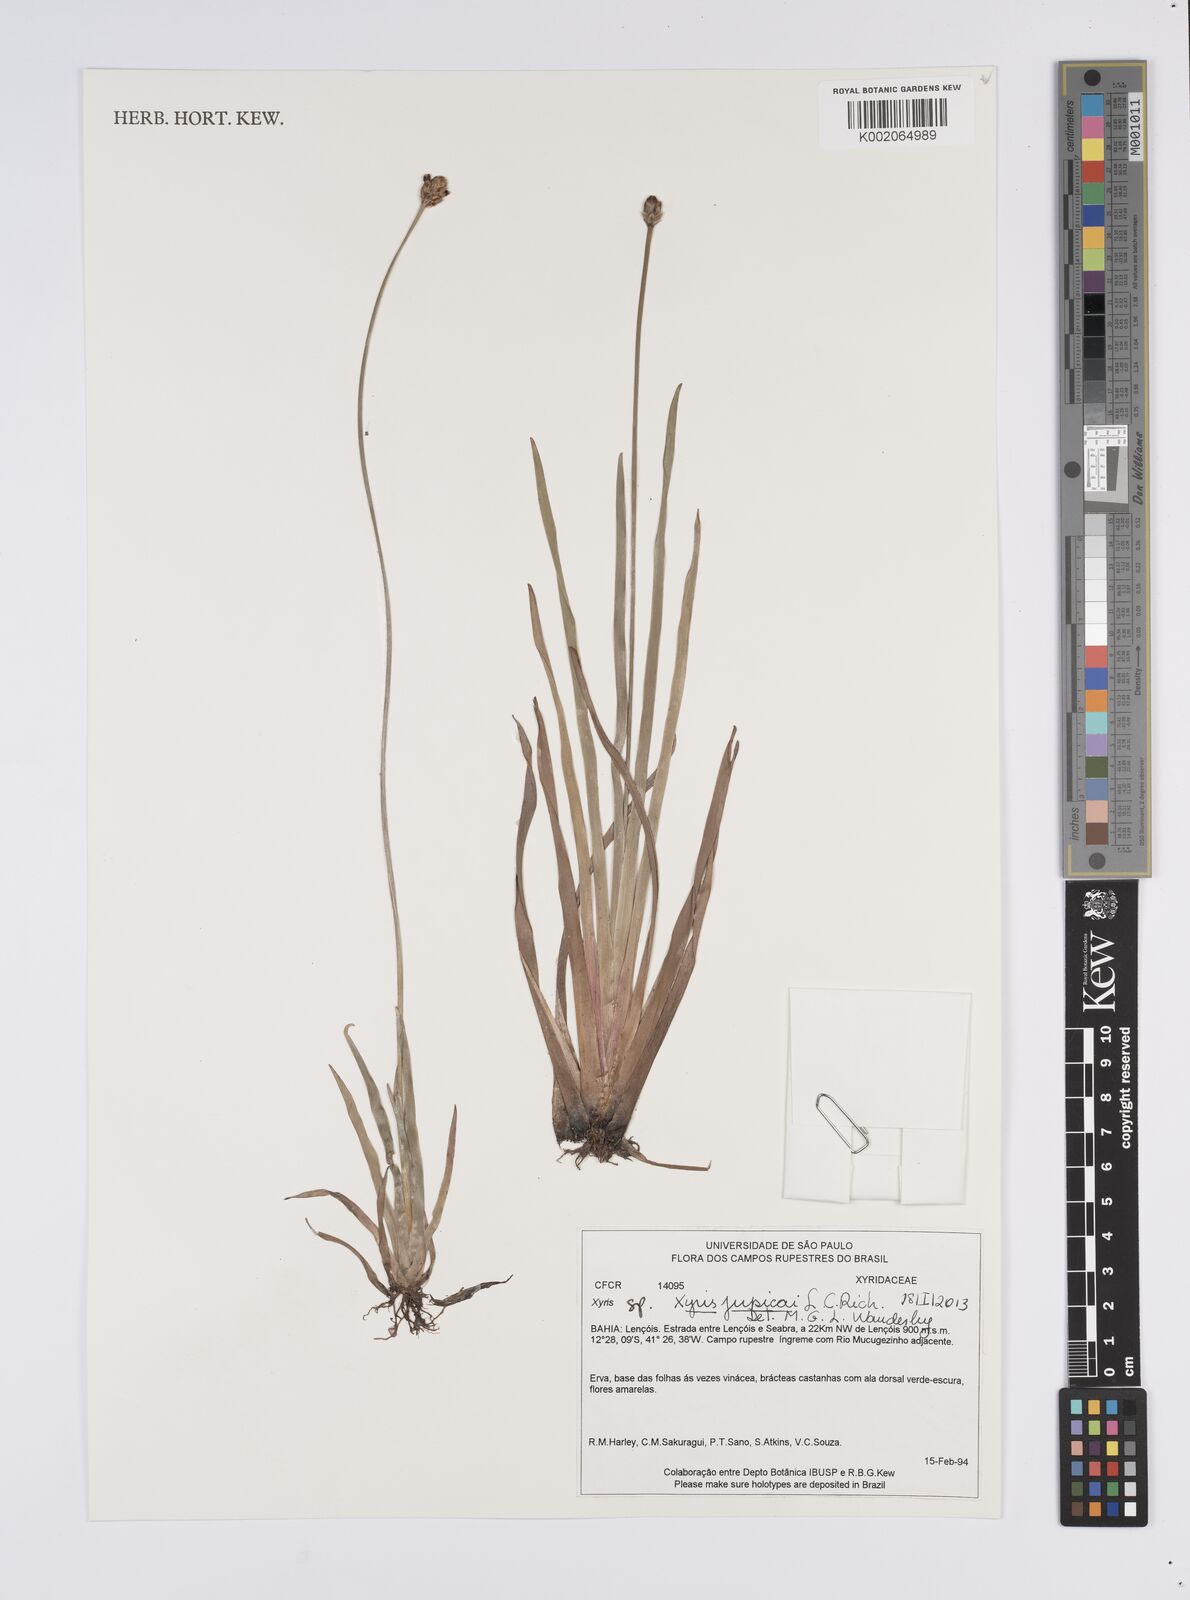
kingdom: Plantae
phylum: Tracheophyta
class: Liliopsida
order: Poales
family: Xyridaceae
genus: Xyris
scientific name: Xyris jupicai
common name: Richard's yelloweyed grass
